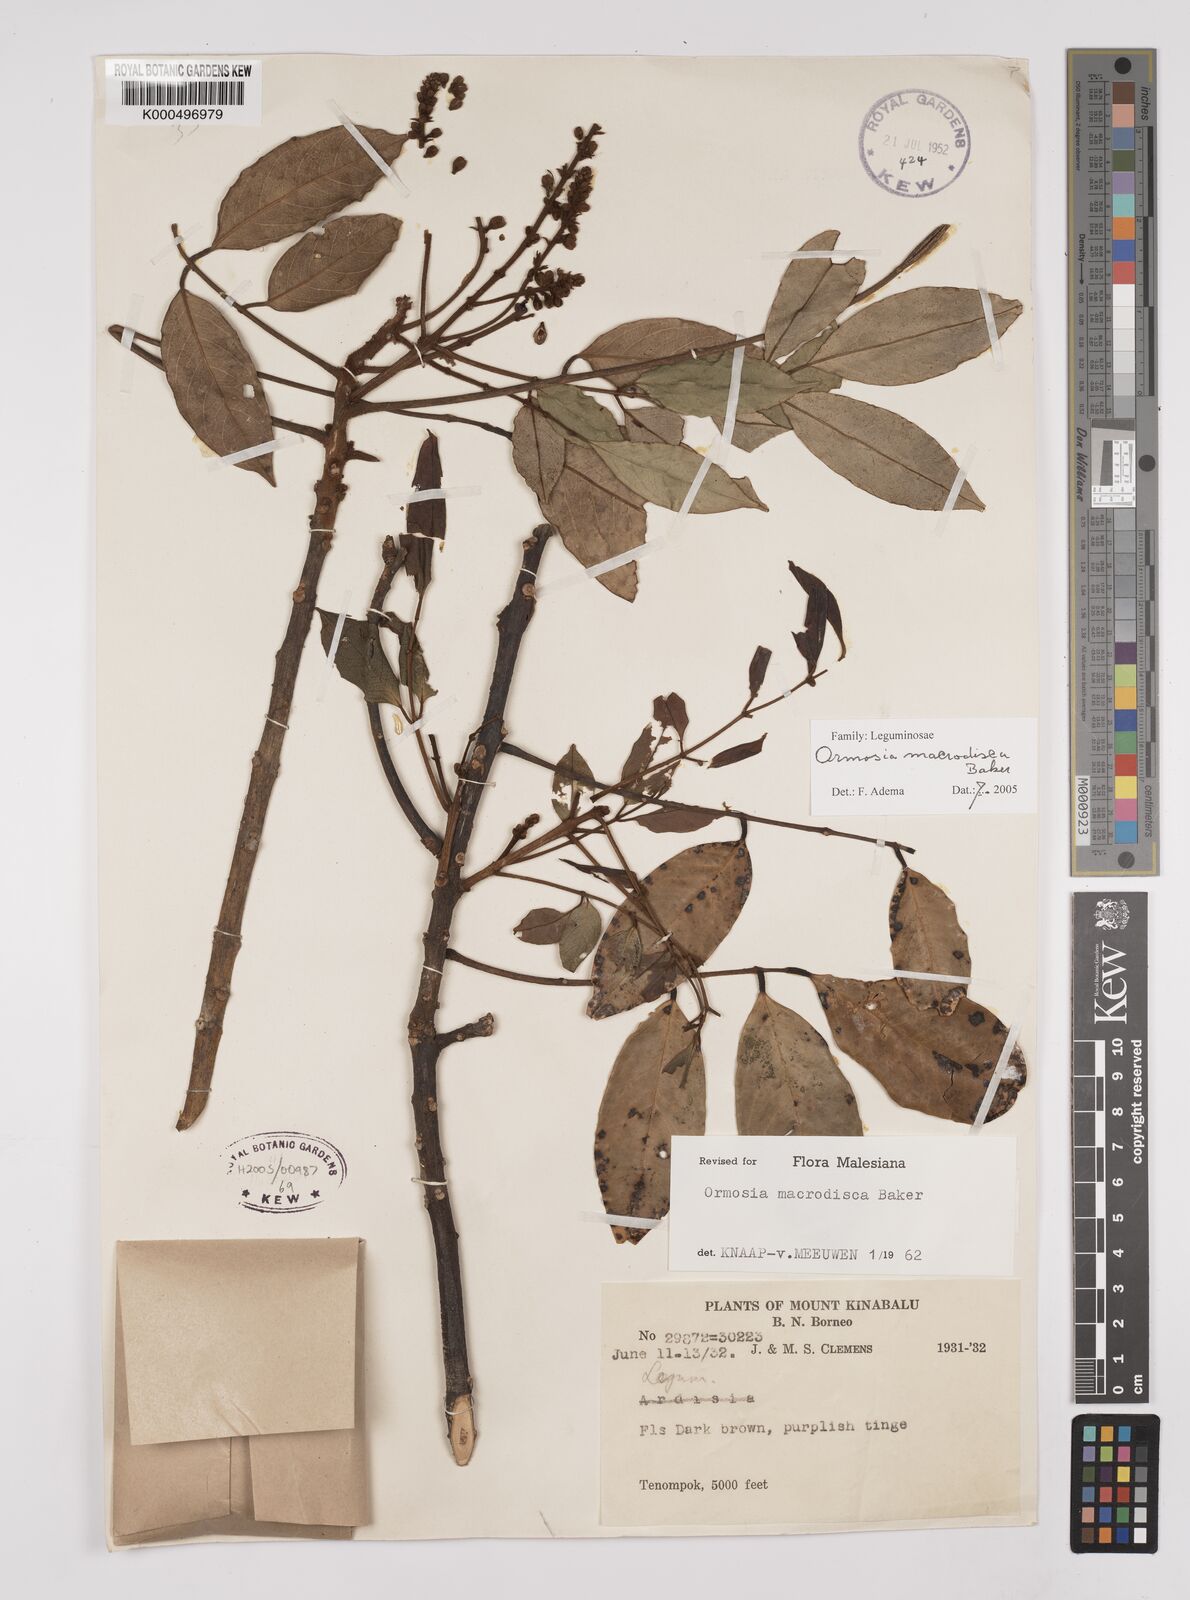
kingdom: Plantae
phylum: Tracheophyta
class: Magnoliopsida
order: Fabales
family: Fabaceae
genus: Ormosia
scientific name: Ormosia macrodisca
